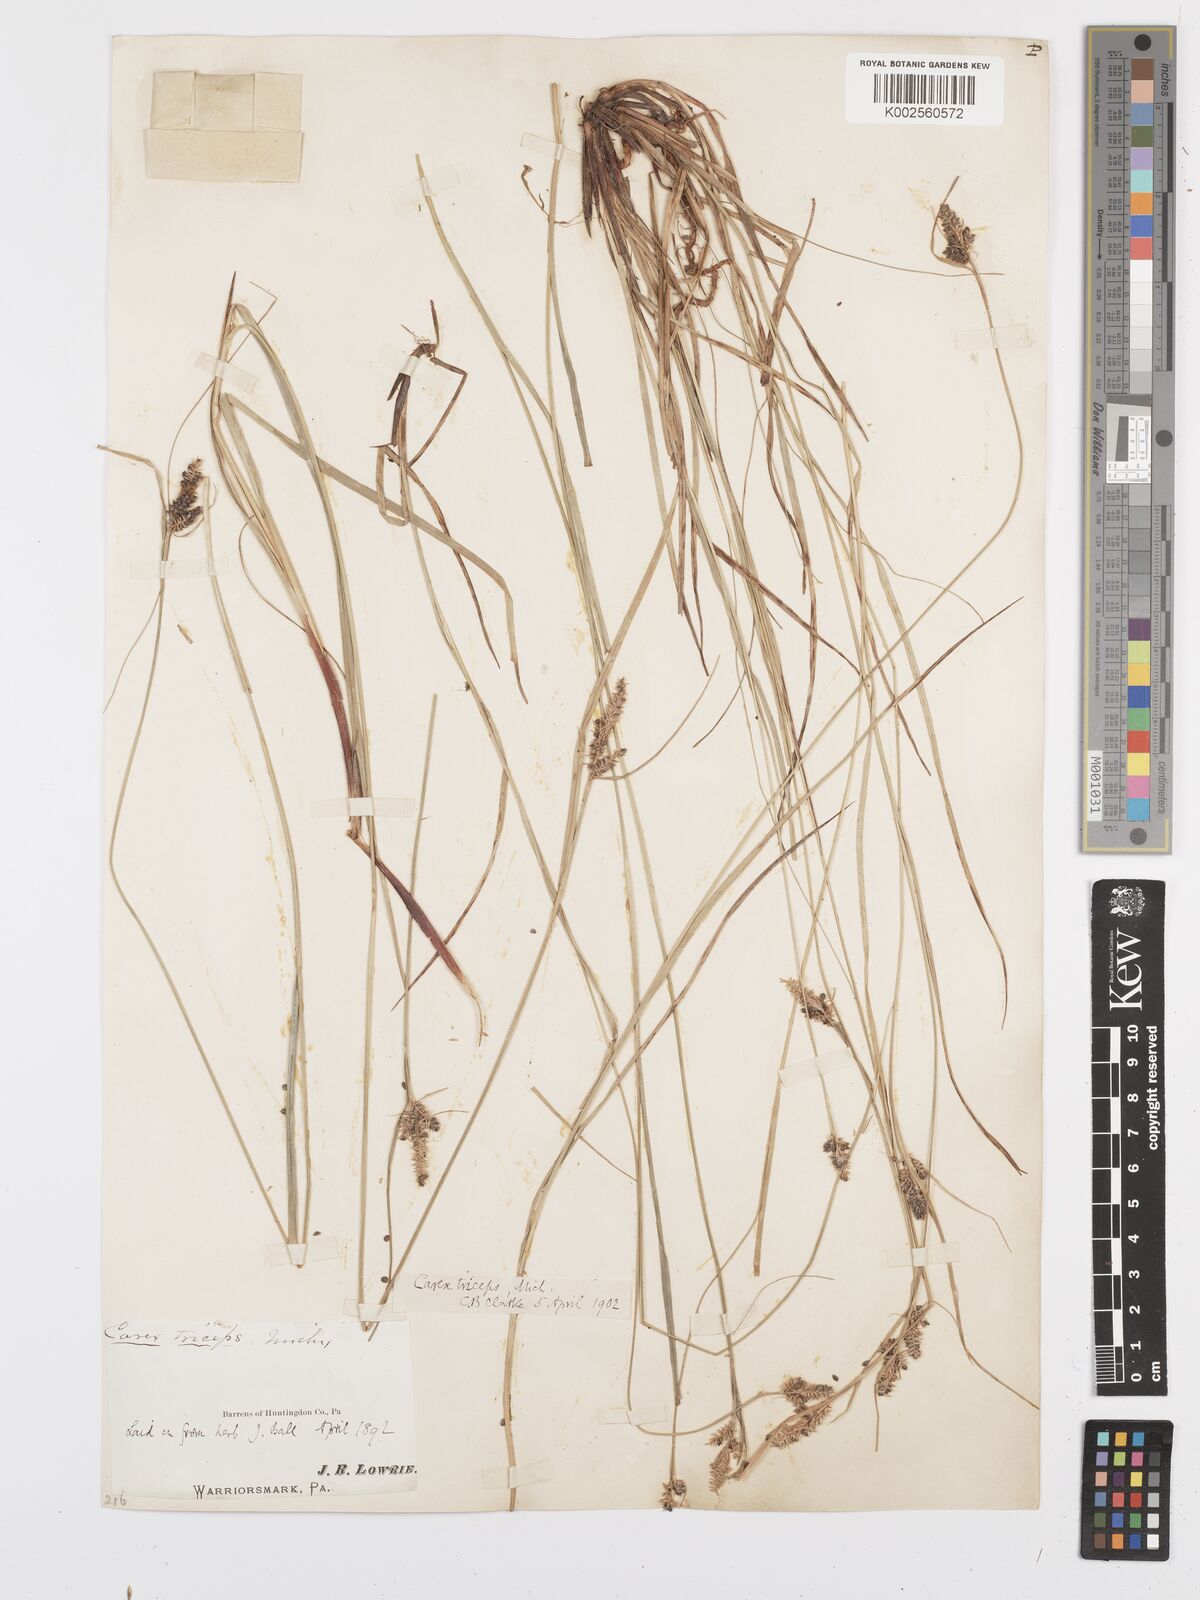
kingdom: Plantae
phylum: Tracheophyta
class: Liliopsida
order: Poales
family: Cyperaceae
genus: Carex
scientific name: Carex complanata
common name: Hirsute sedge
